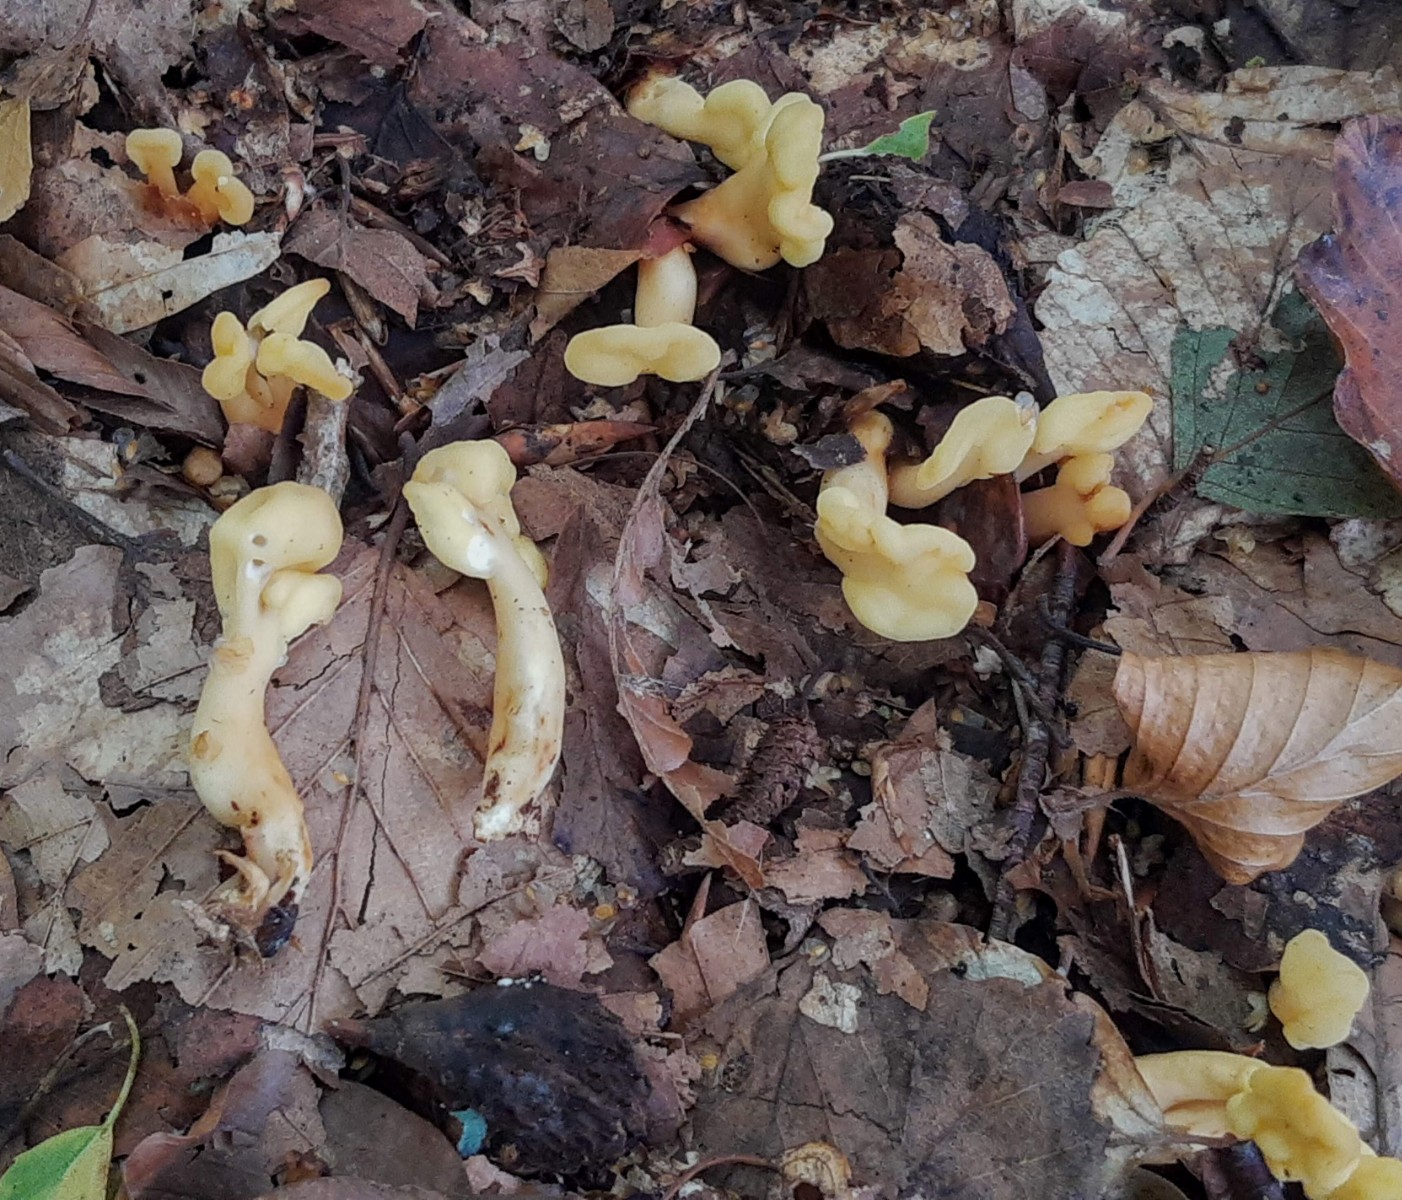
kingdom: Fungi
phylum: Ascomycota
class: Leotiomycetes
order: Rhytismatales
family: Cudoniaceae
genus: Spathularia
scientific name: Spathularia flavida
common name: gul spatelsvamp
